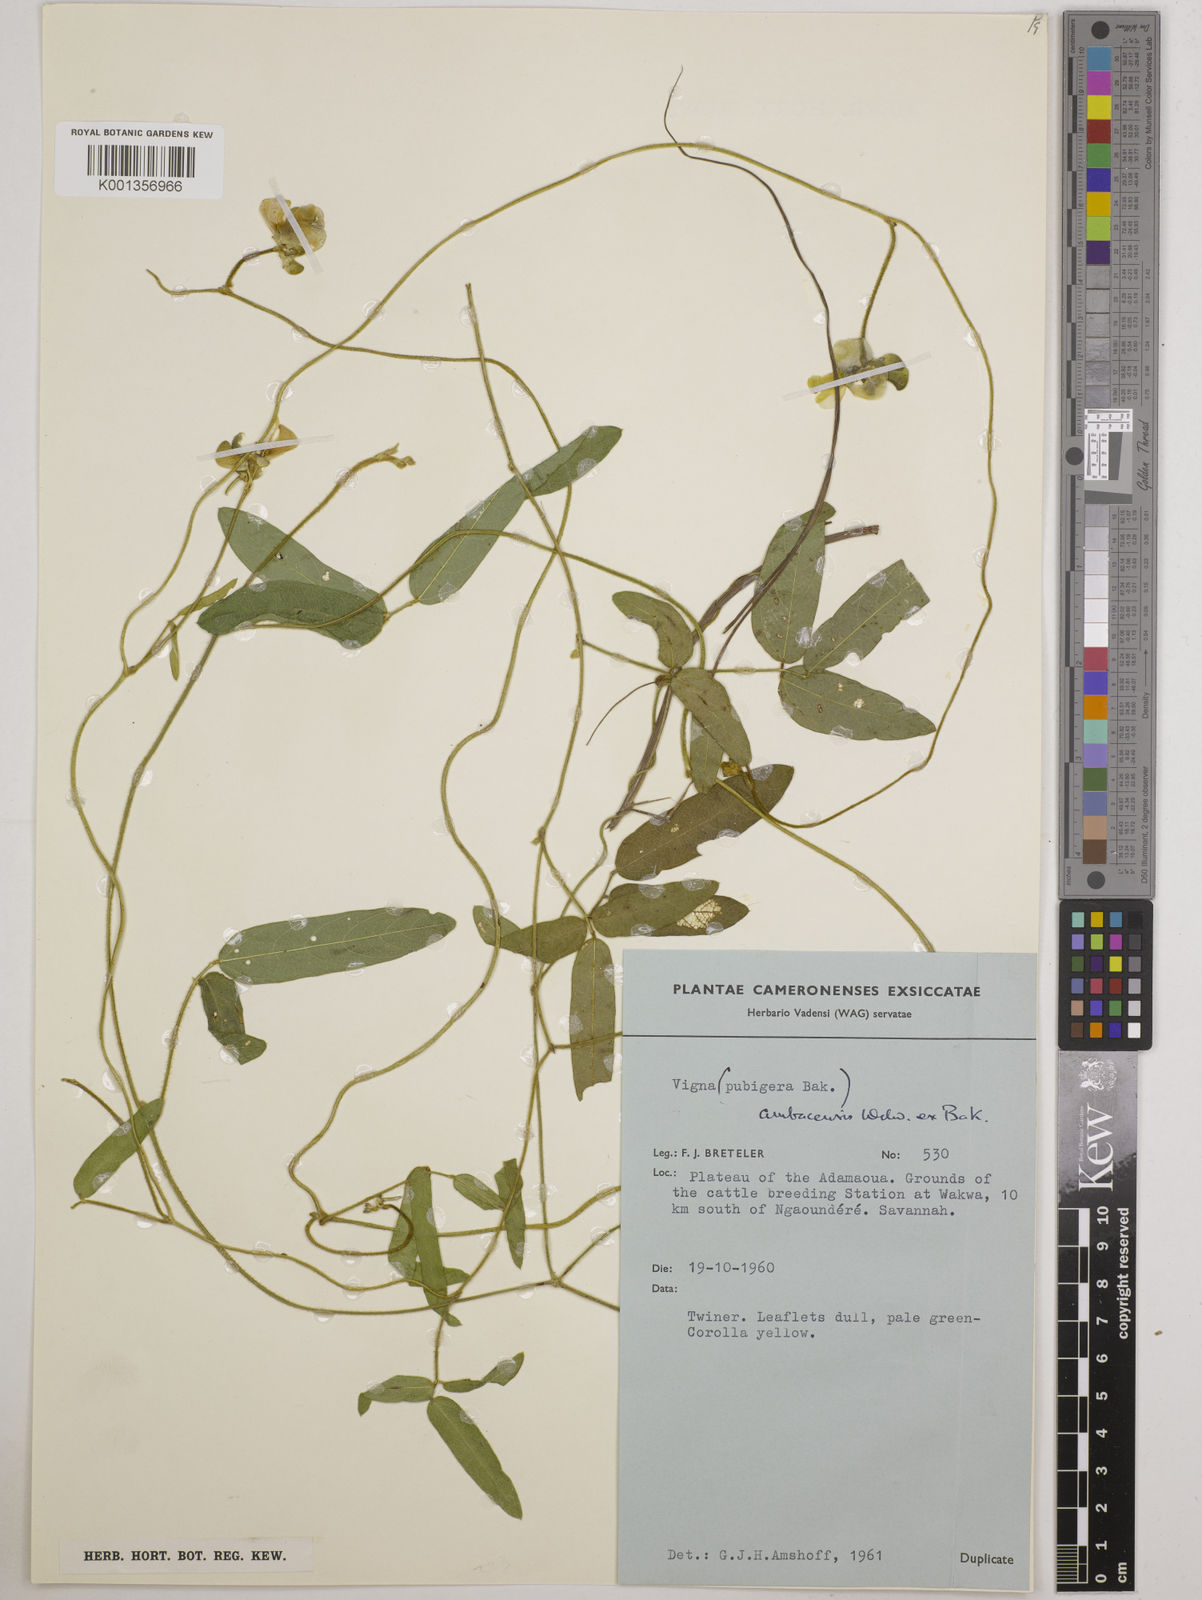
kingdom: Plantae
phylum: Tracheophyta
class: Magnoliopsida
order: Fabales
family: Fabaceae
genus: Vigna
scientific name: Vigna ambacensis
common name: Tsarkiyan zomo
